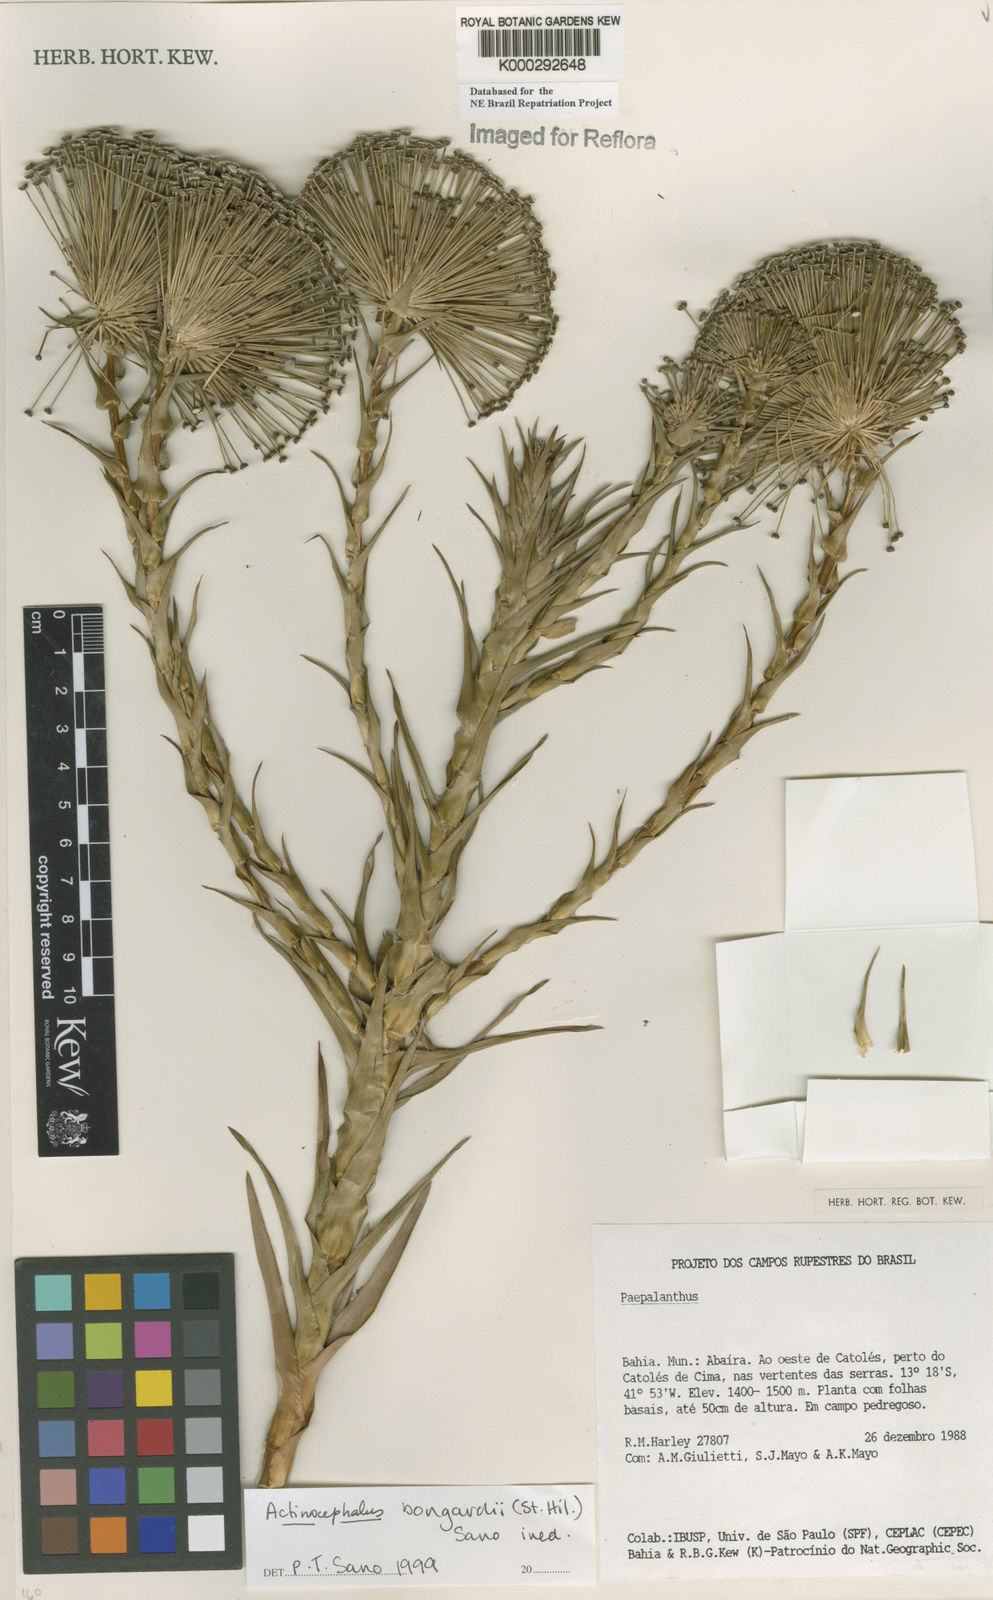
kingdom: Plantae
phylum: Tracheophyta
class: Liliopsida
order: Poales
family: Eriocaulaceae
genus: Paepalanthus
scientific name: Paepalanthus hilairei
